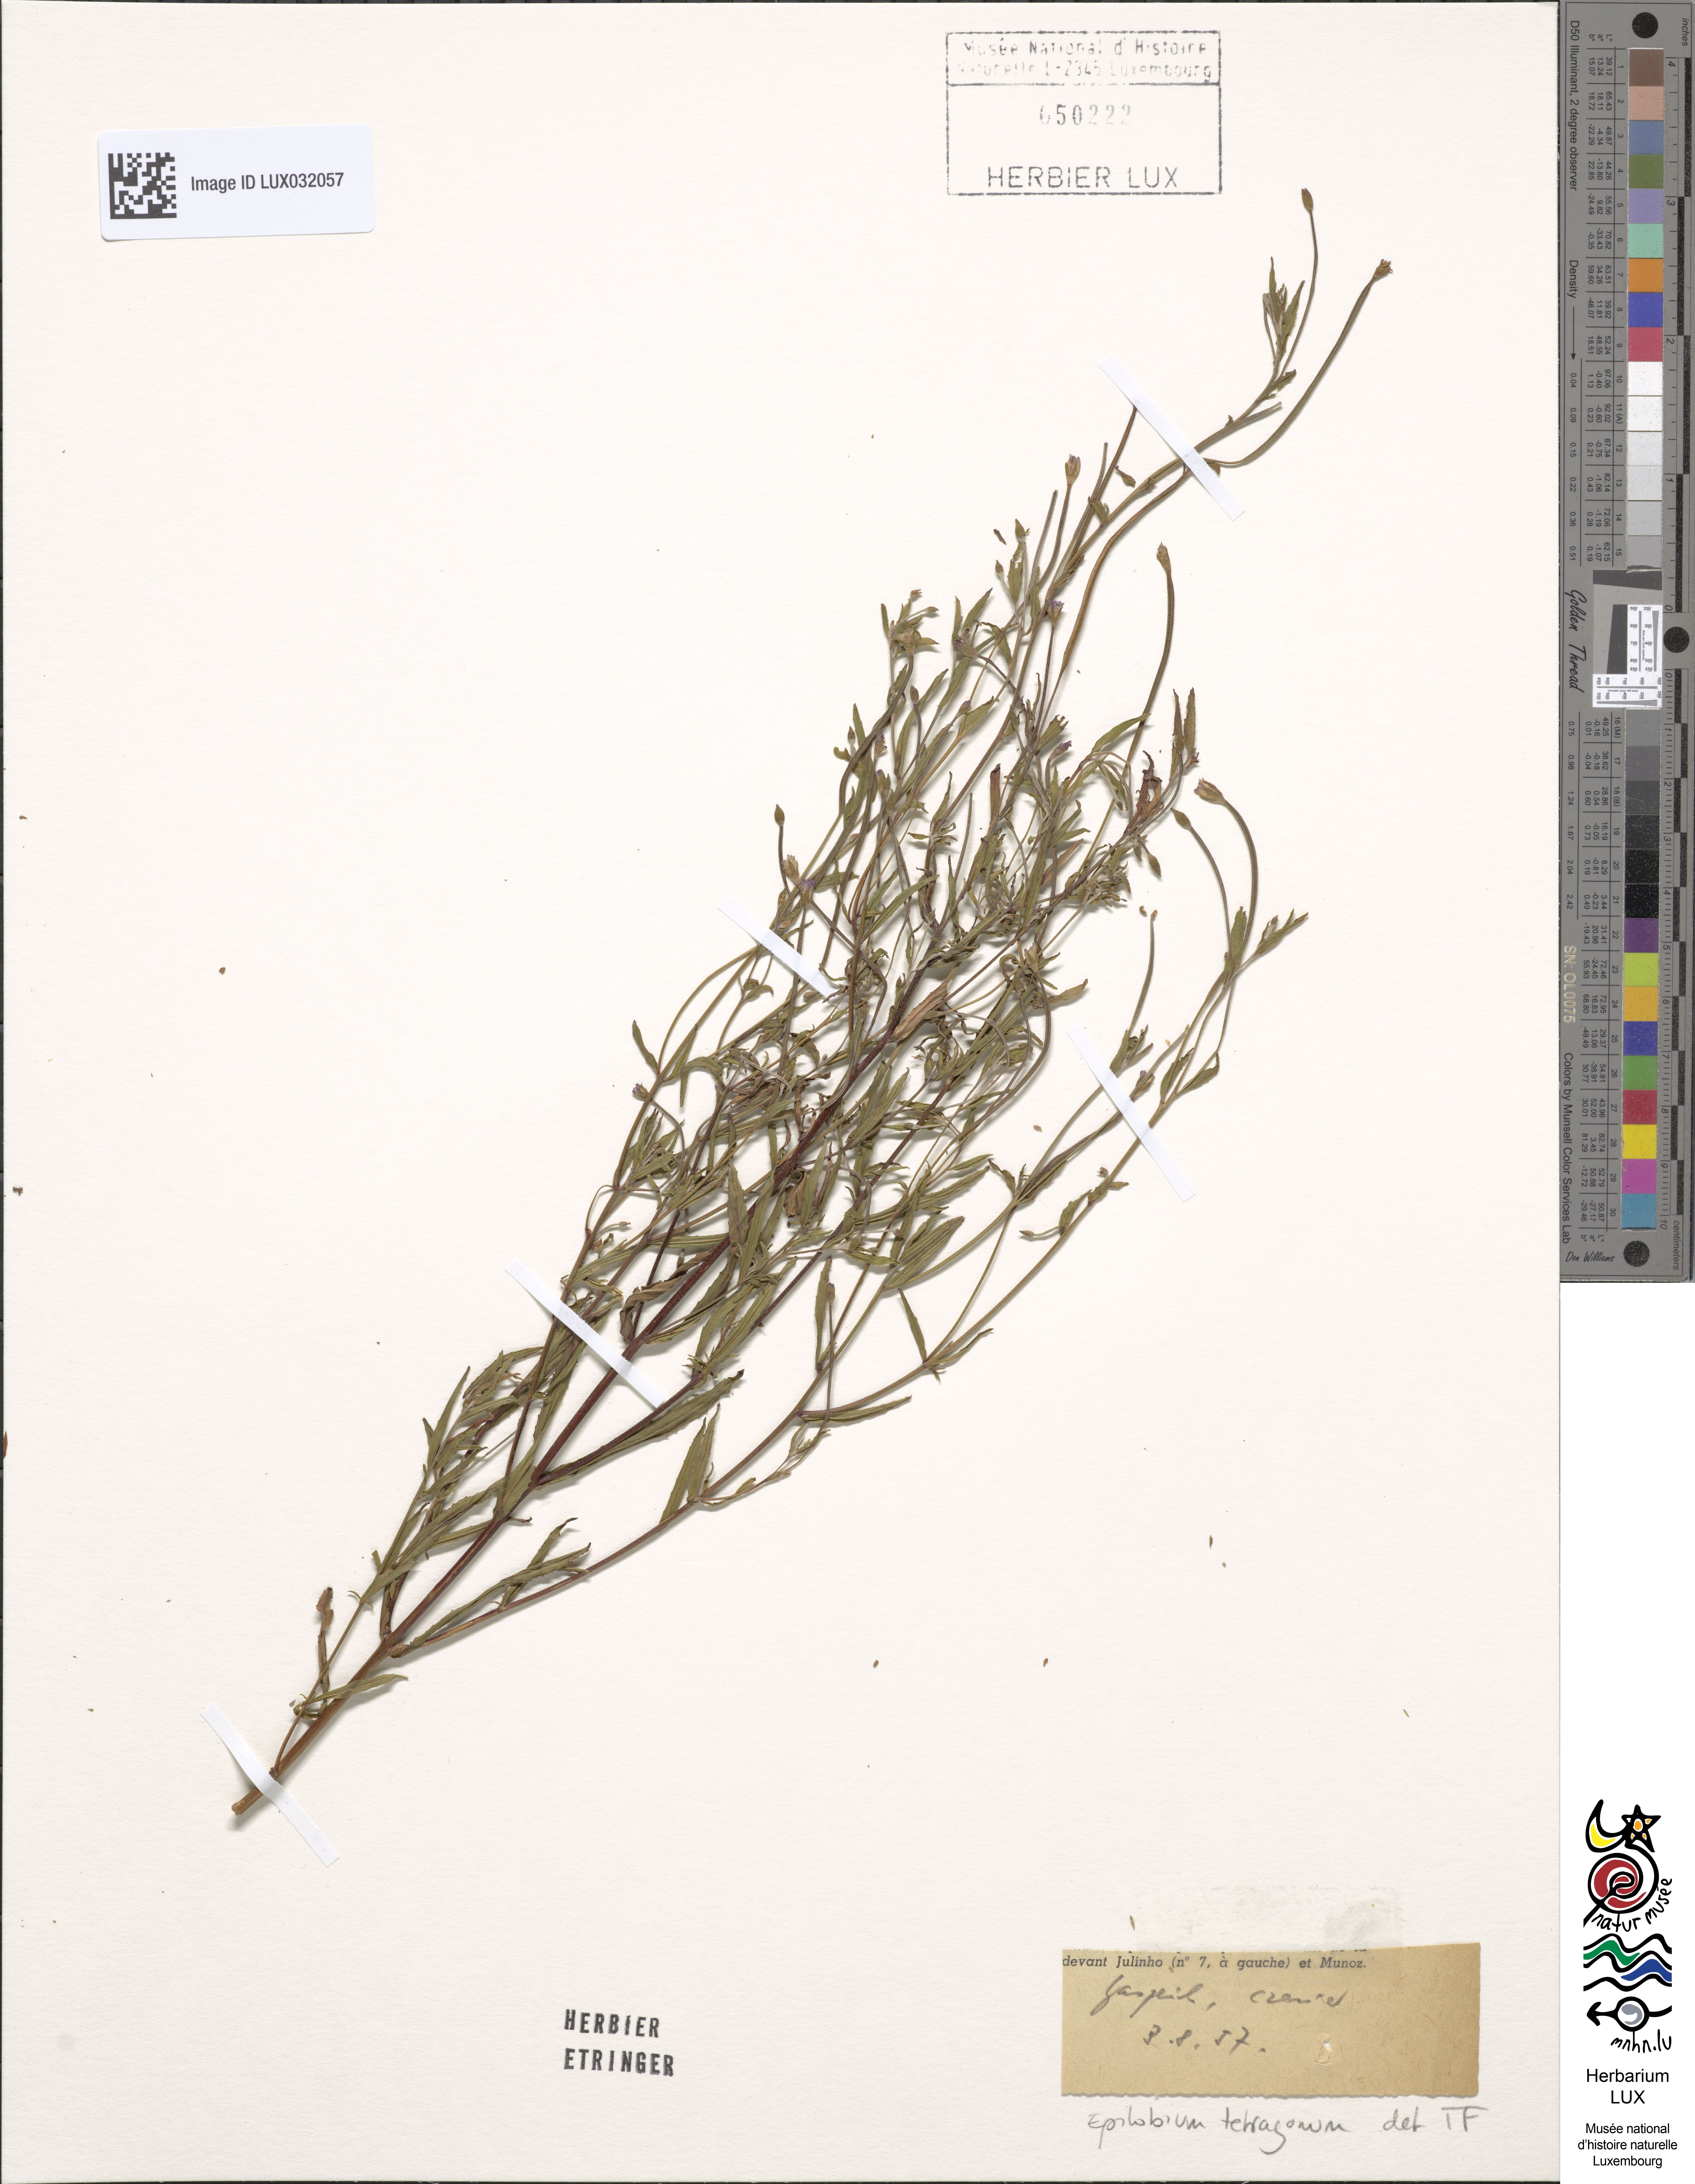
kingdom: Plantae
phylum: Tracheophyta
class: Magnoliopsida
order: Myrtales
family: Onagraceae
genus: Epilobium
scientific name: Epilobium tetragonum
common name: Square-stemmed willowherb
